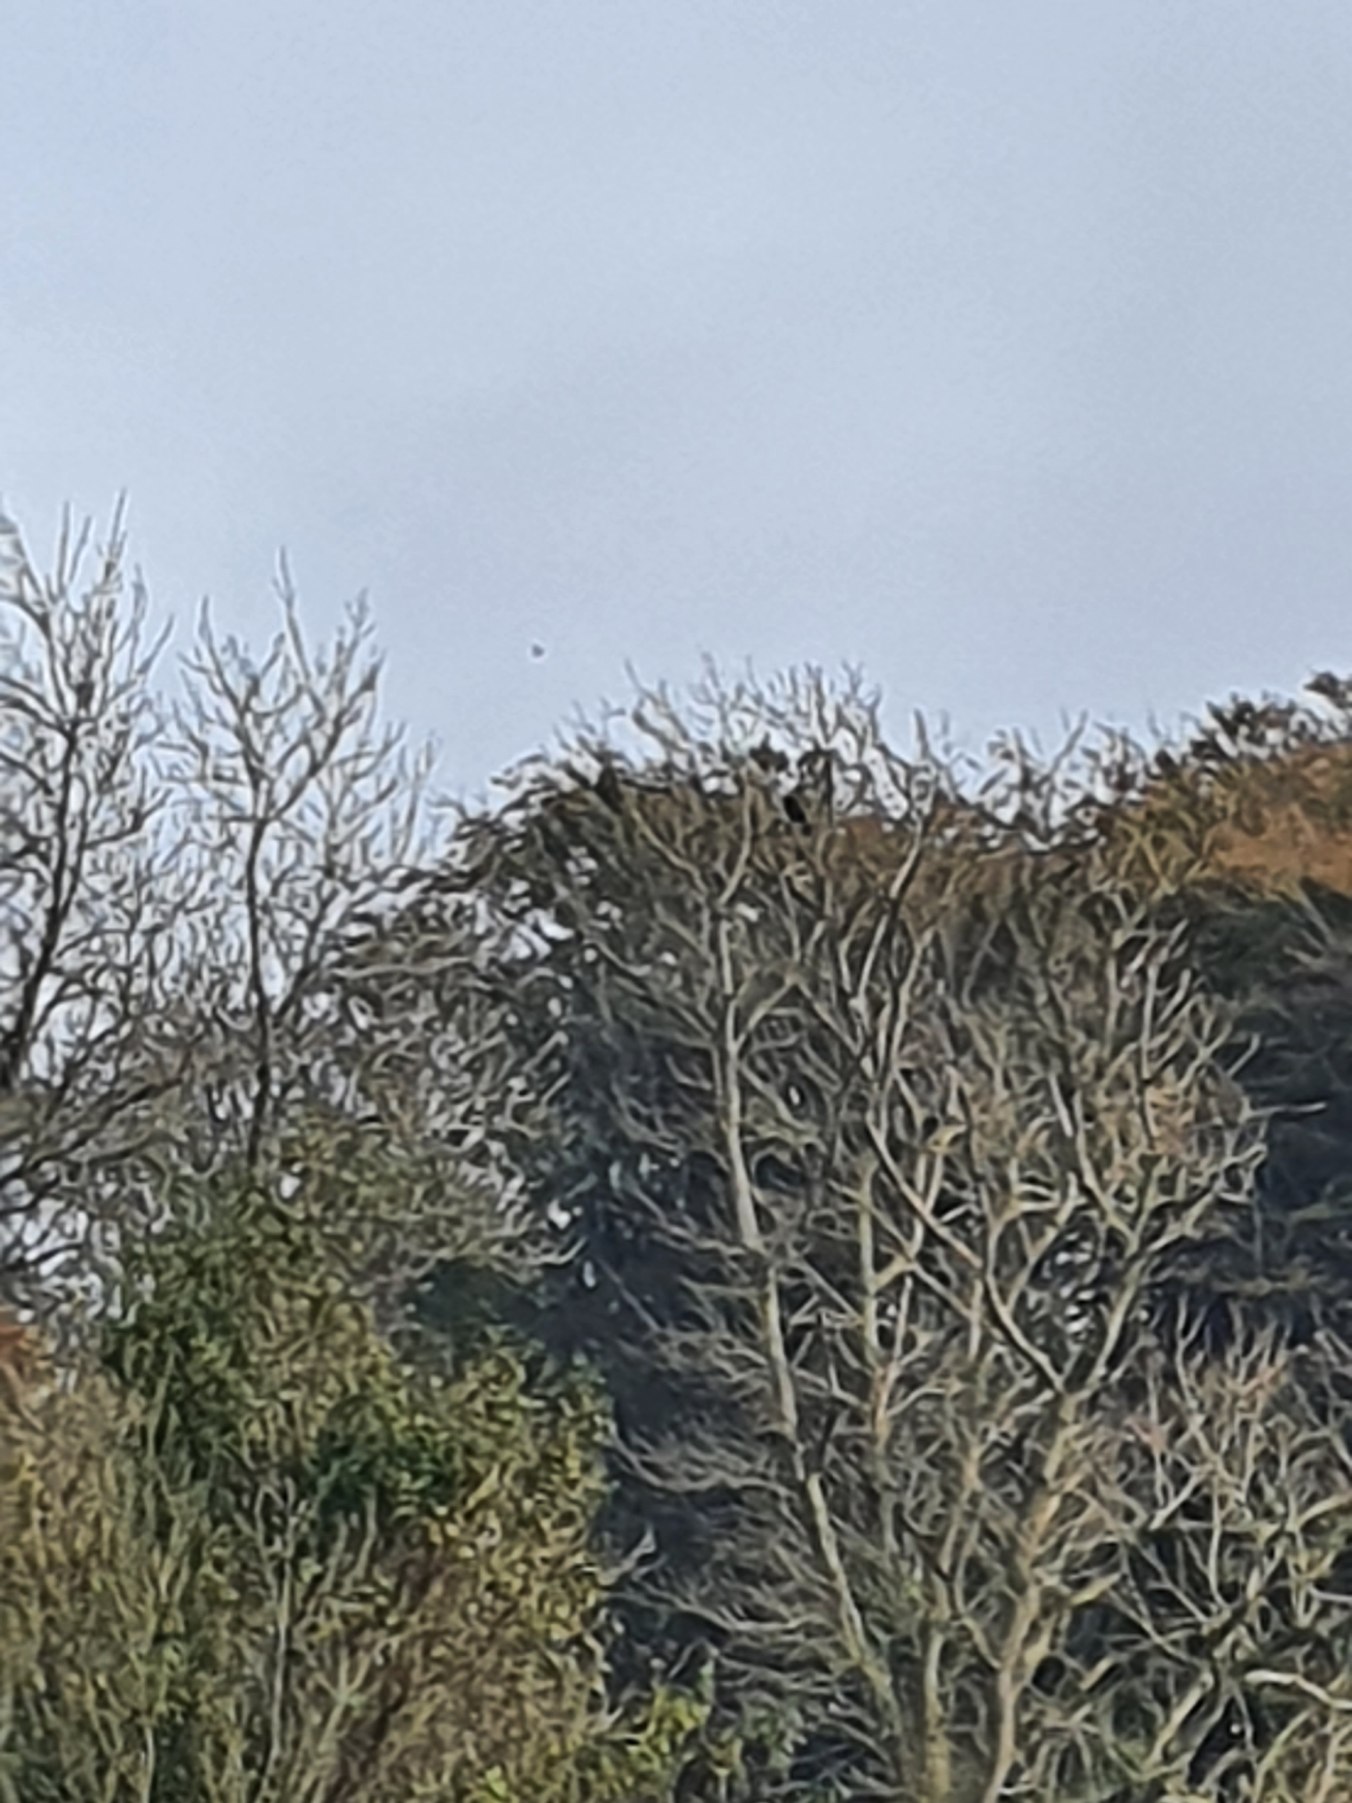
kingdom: Animalia
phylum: Chordata
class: Aves
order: Passeriformes
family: Corvidae
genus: Corvus
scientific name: Corvus corax
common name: Ravn
